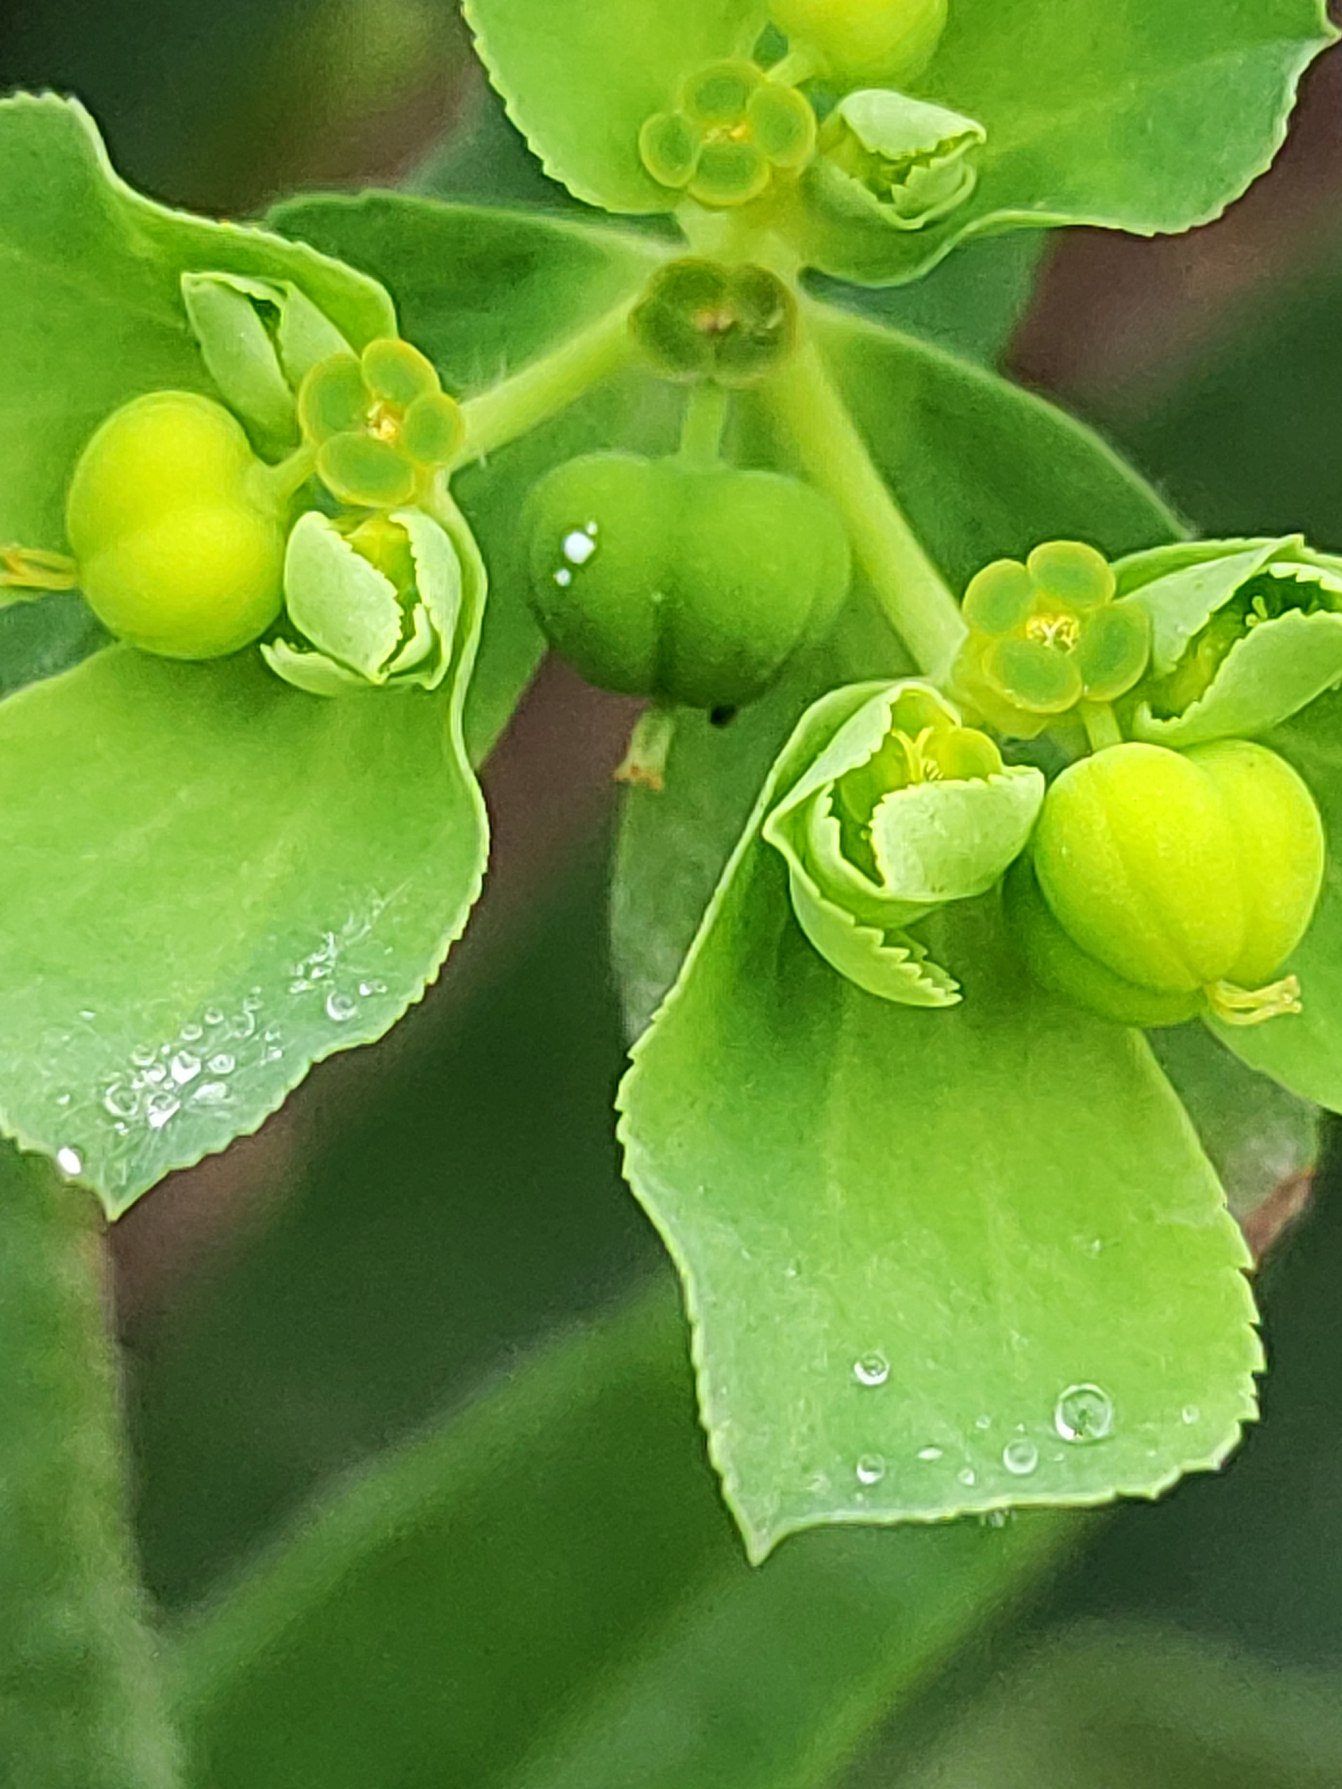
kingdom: Plantae
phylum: Tracheophyta
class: Magnoliopsida
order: Malpighiales
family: Euphorbiaceae
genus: Euphorbia
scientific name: Euphorbia helioscopia
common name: Skærm-vortemælk
